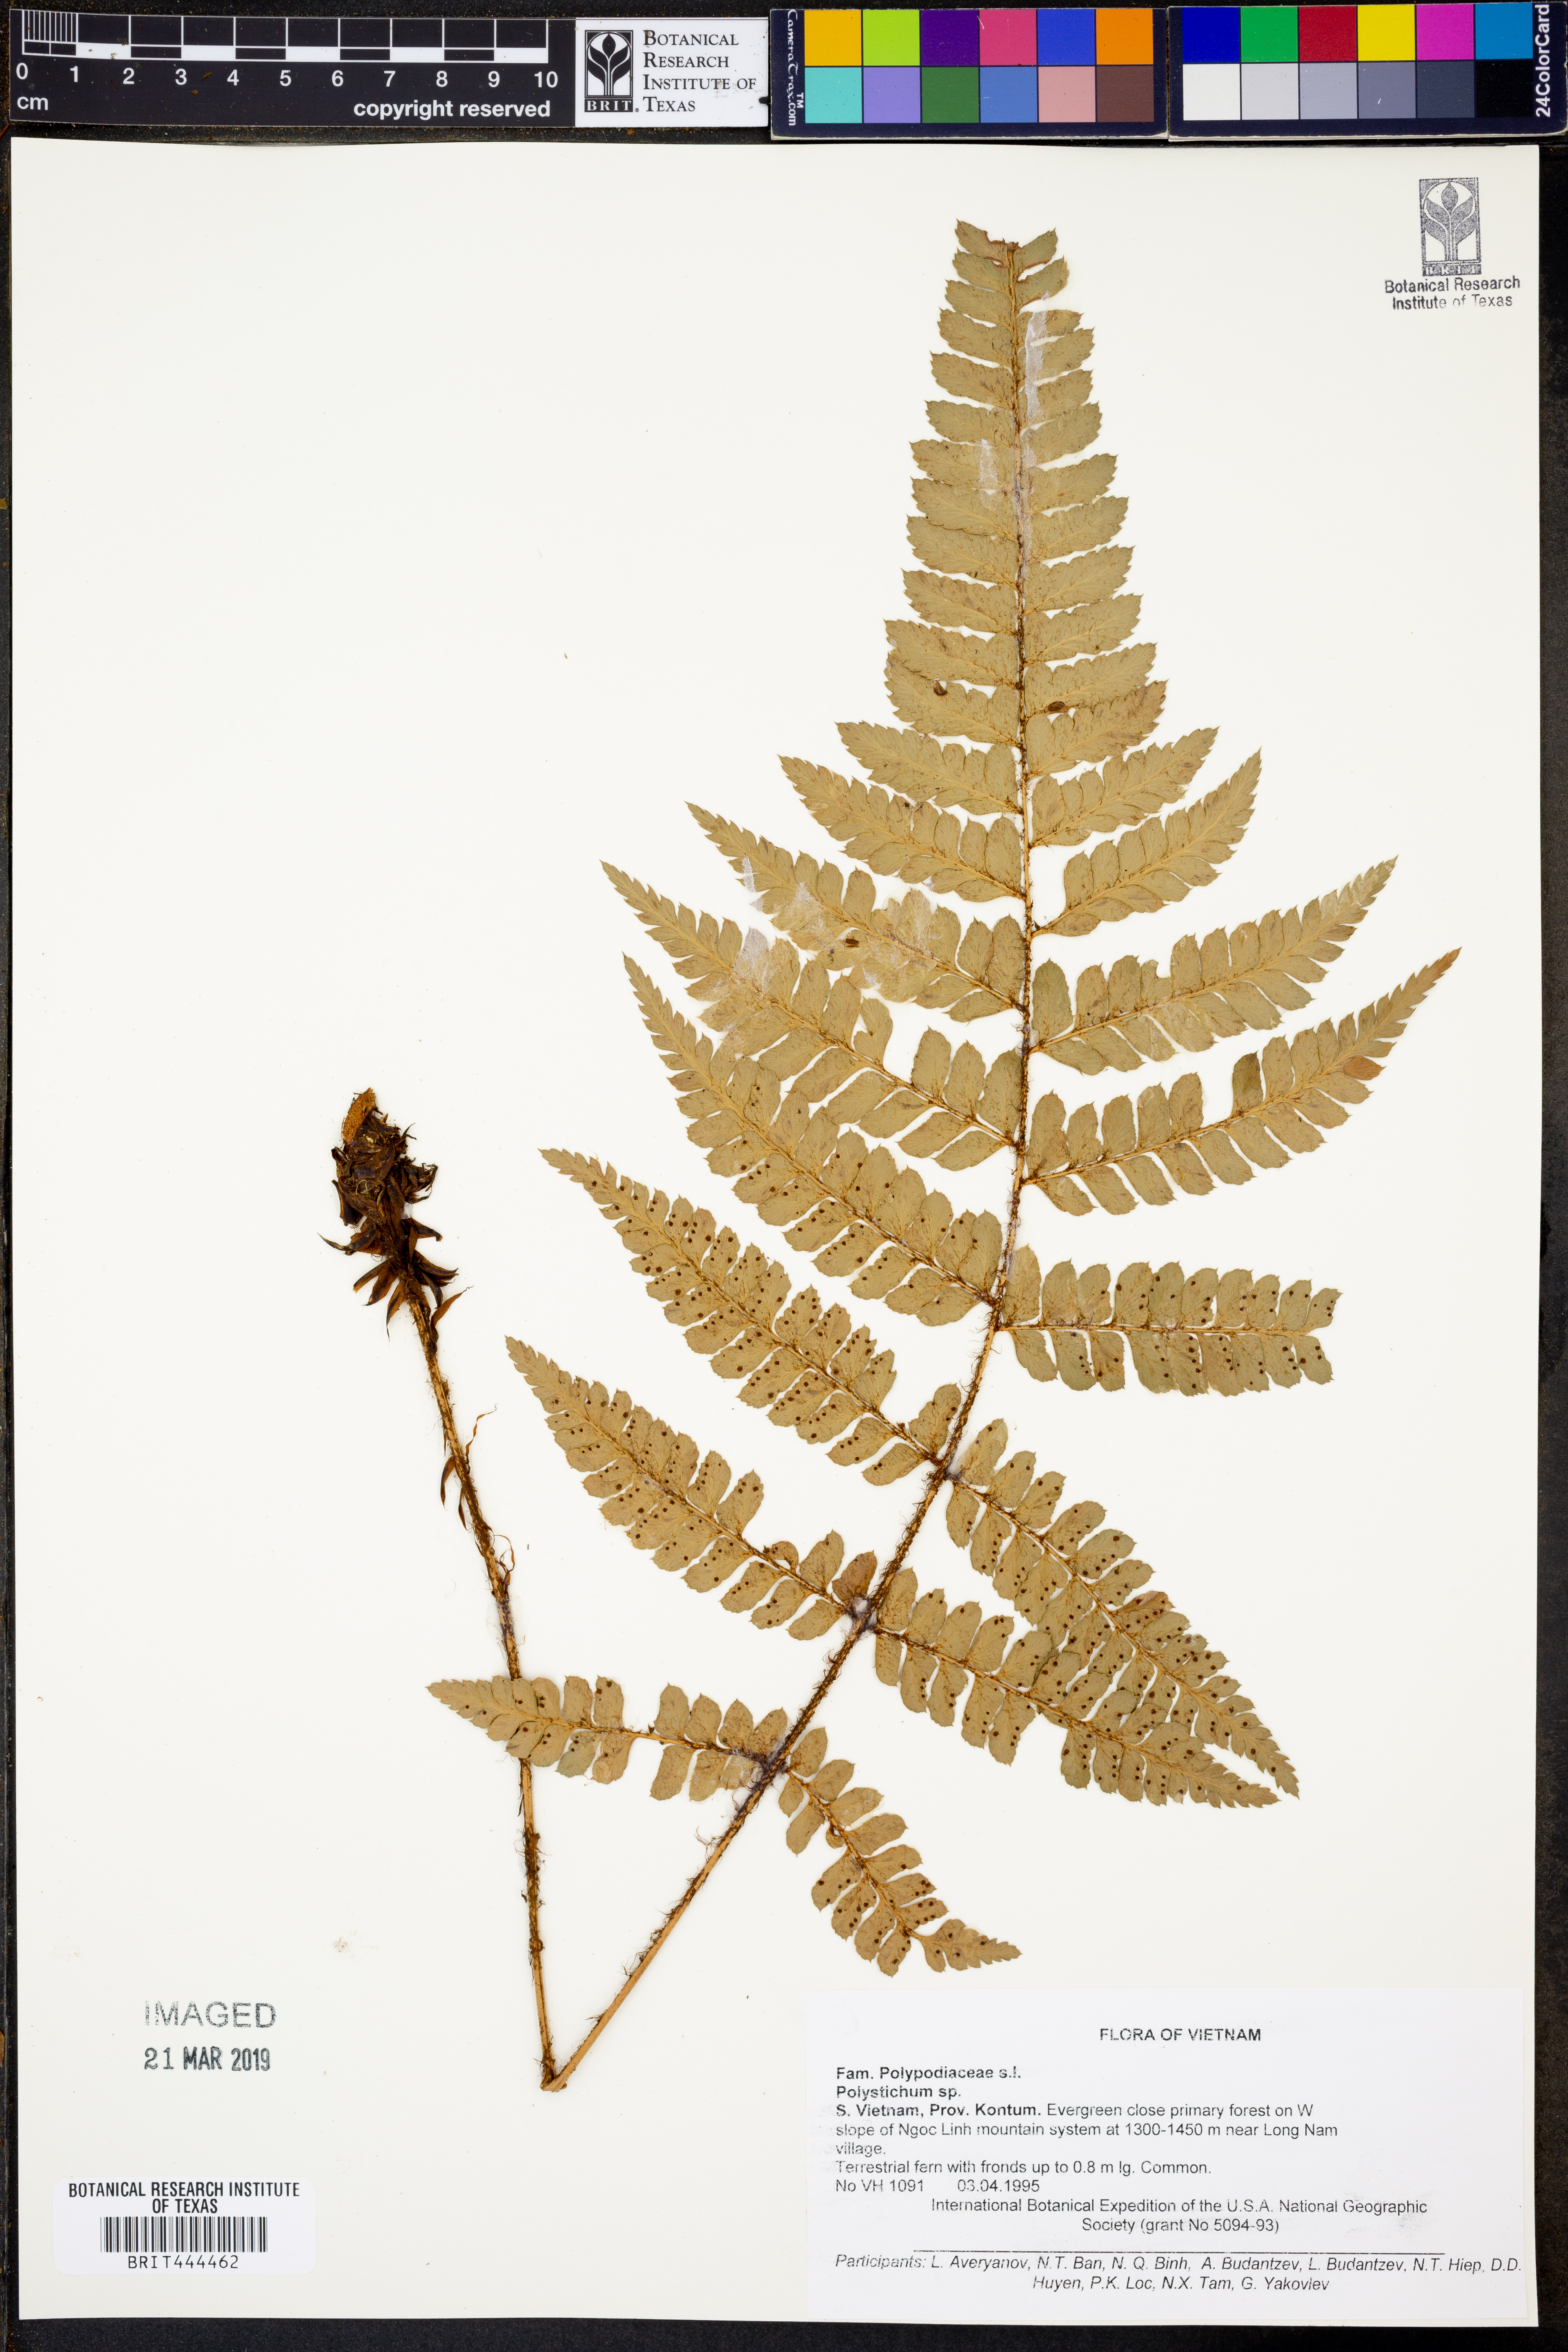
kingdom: Plantae
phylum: Tracheophyta
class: Polypodiopsida
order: Polypodiales
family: Dryopteridaceae
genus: Polystichum
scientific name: Polystichum
